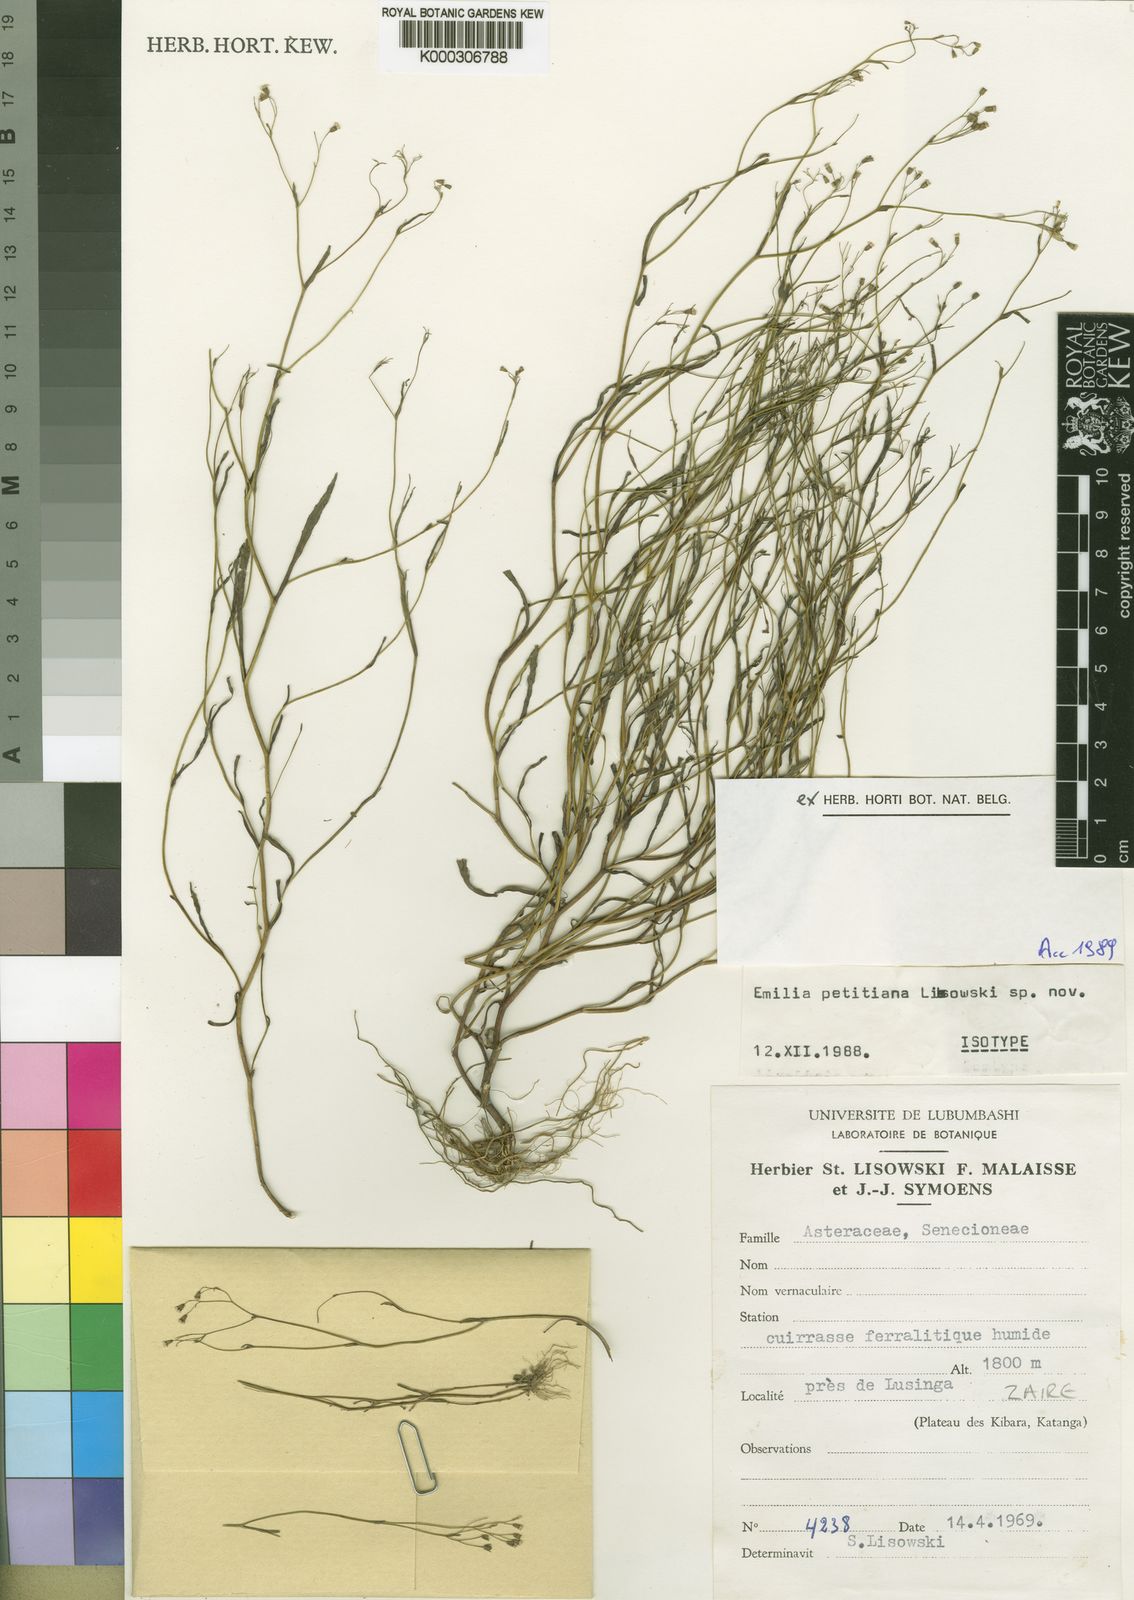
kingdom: Plantae
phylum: Tracheophyta
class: Magnoliopsida
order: Asterales
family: Asteraceae
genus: Emilia
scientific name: Emilia petitiana
